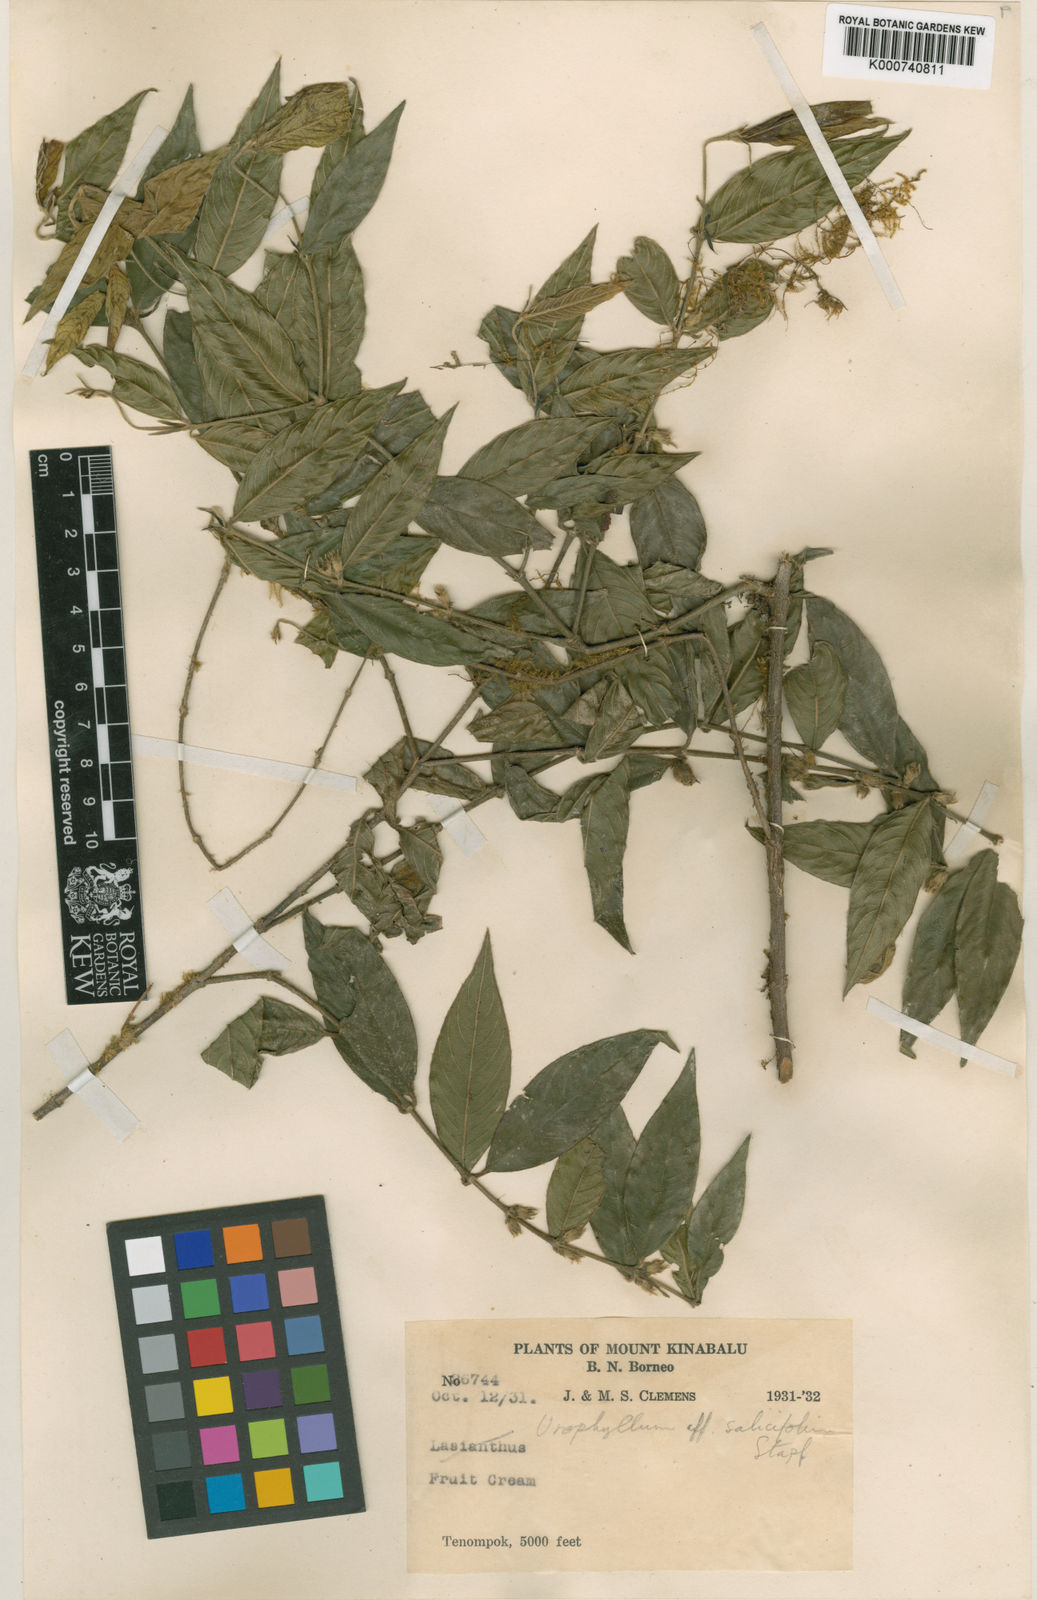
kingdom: Plantae
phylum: Tracheophyta
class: Magnoliopsida
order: Gentianales
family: Rubiaceae
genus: Urophyllum
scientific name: Urophyllum leucocarpum
